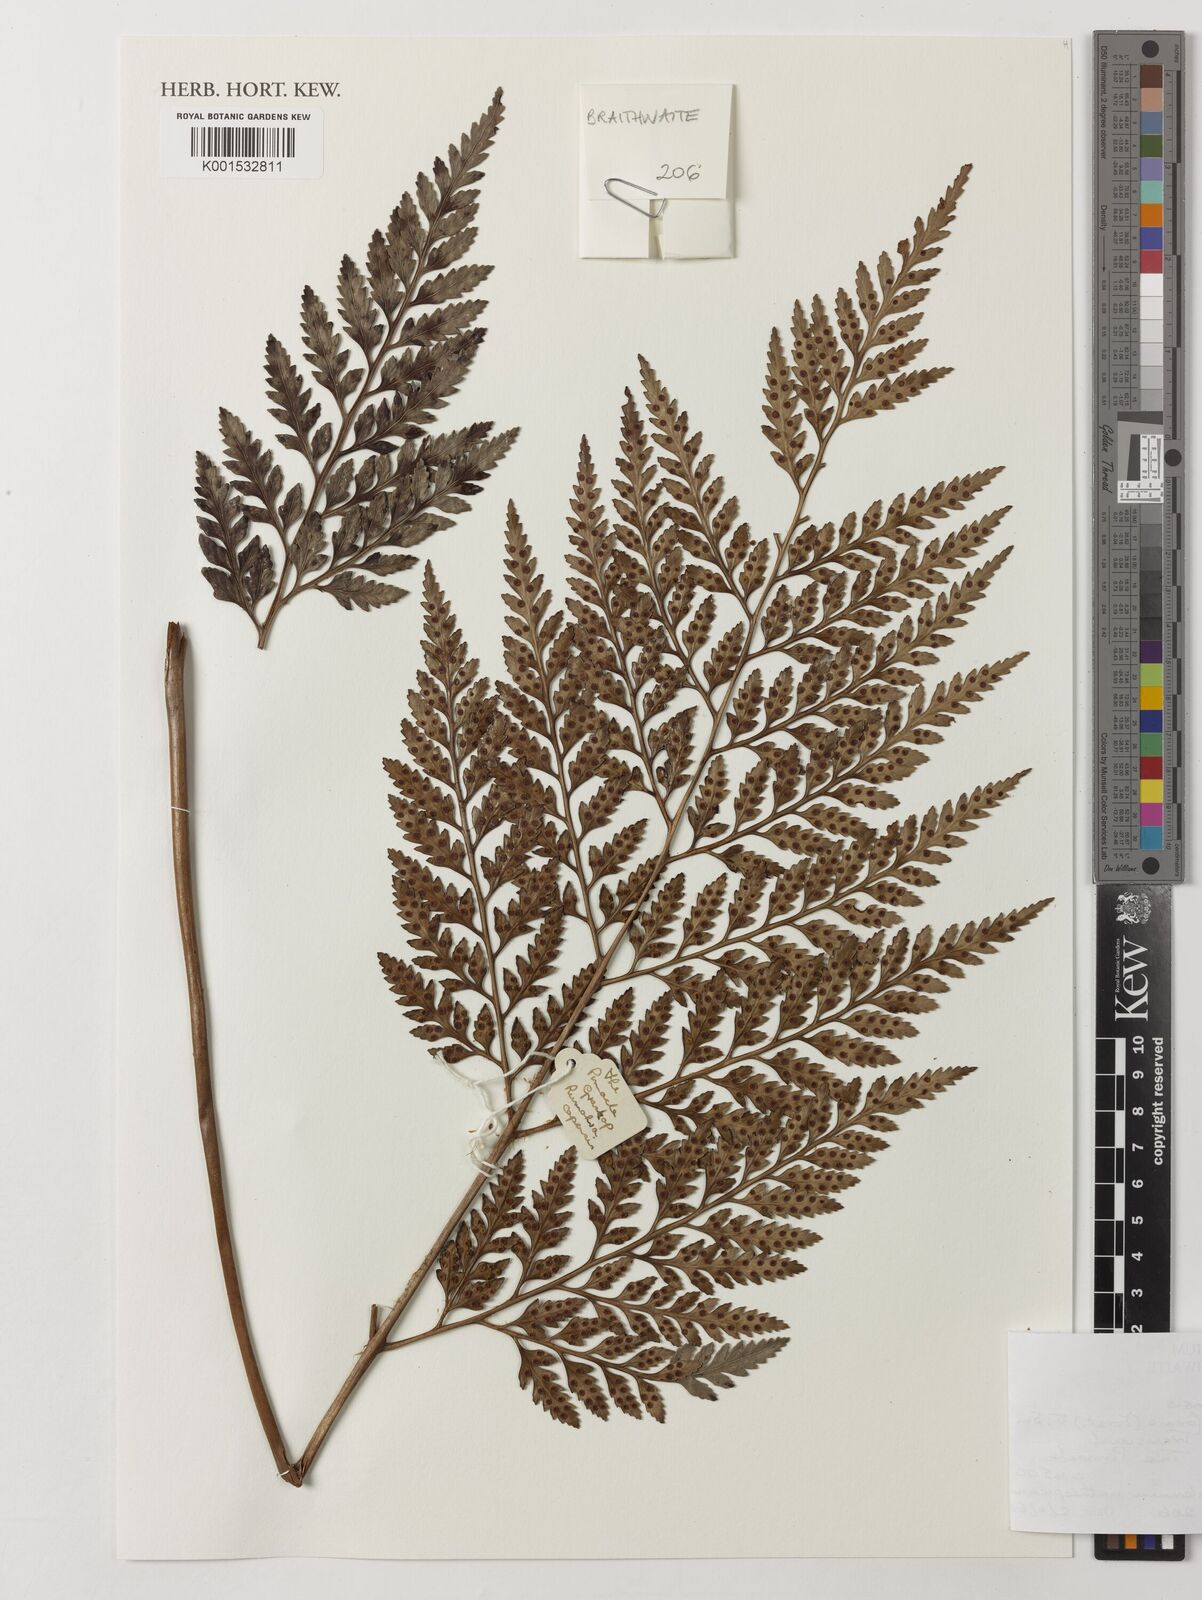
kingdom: Plantae
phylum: Tracheophyta
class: Polypodiopsida
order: Polypodiales
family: Dryopteridaceae
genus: Rumohra
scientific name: Rumohra adiantiformis
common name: Leather fern
